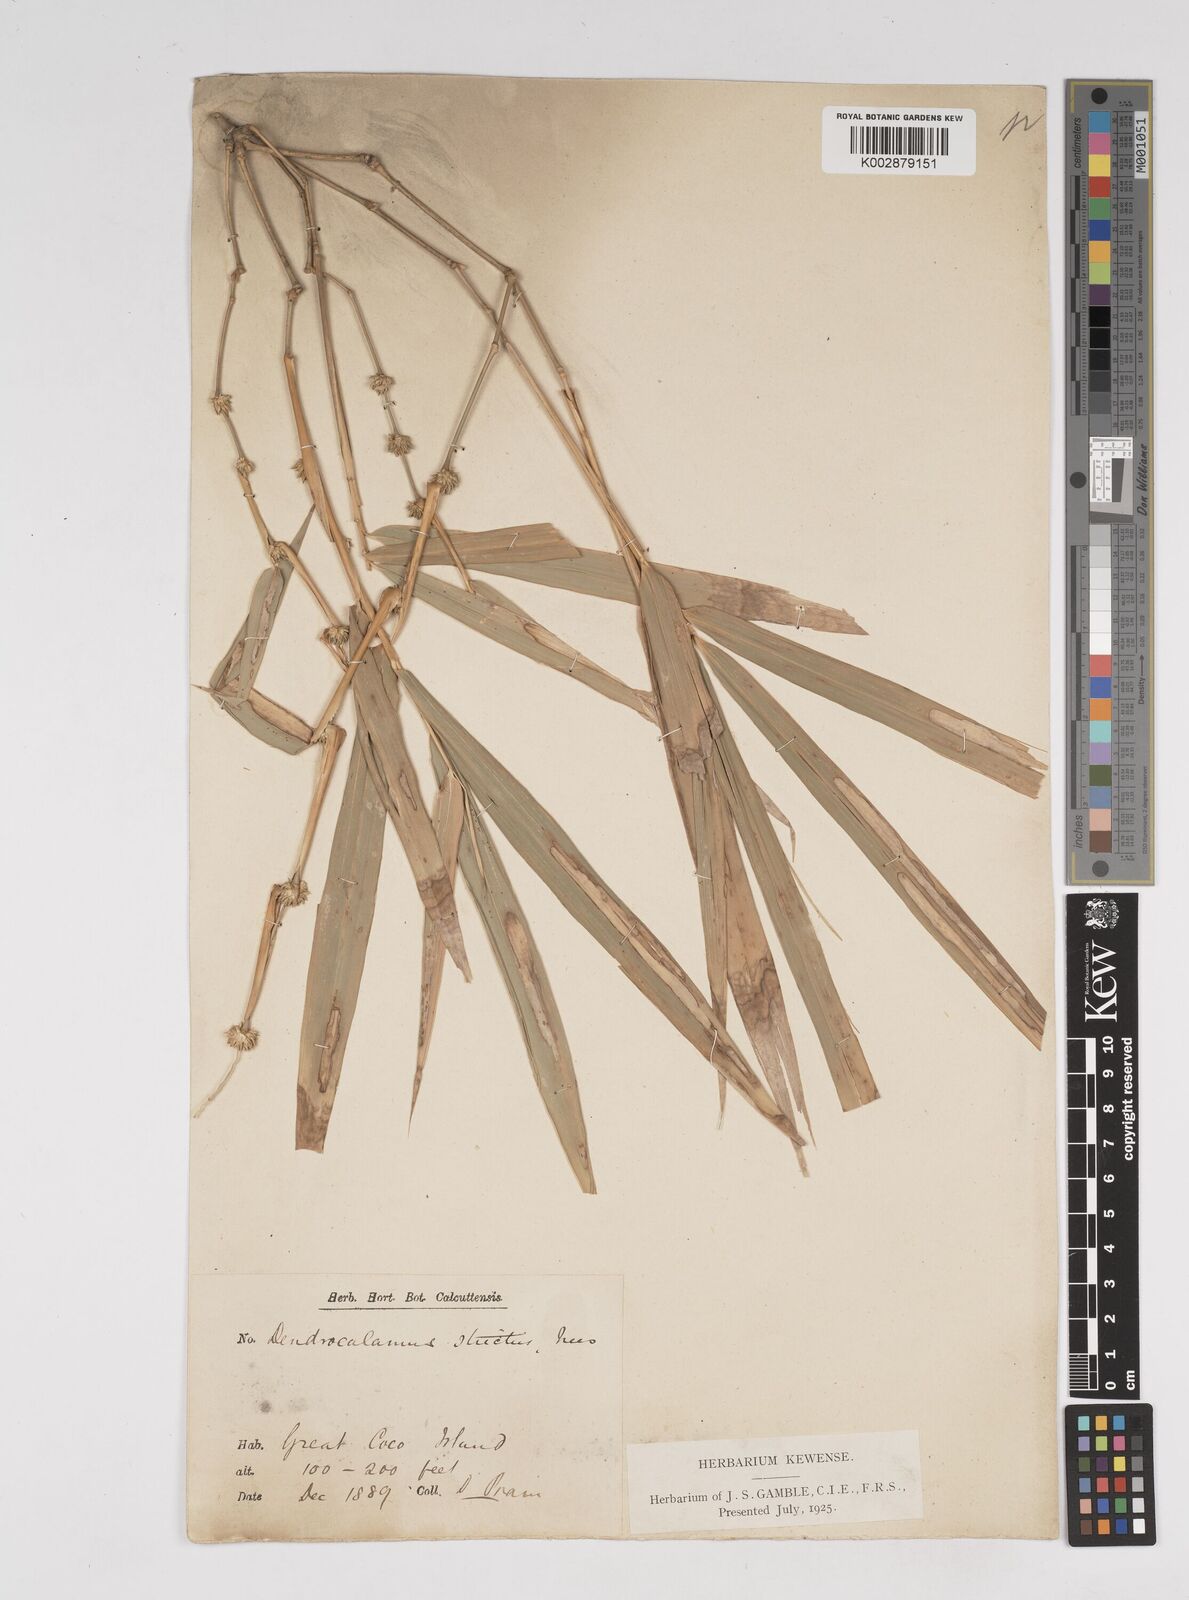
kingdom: Plantae
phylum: Tracheophyta
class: Liliopsida
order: Poales
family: Poaceae
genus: Dendrocalamus
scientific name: Dendrocalamus strictus
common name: Male bamboo
